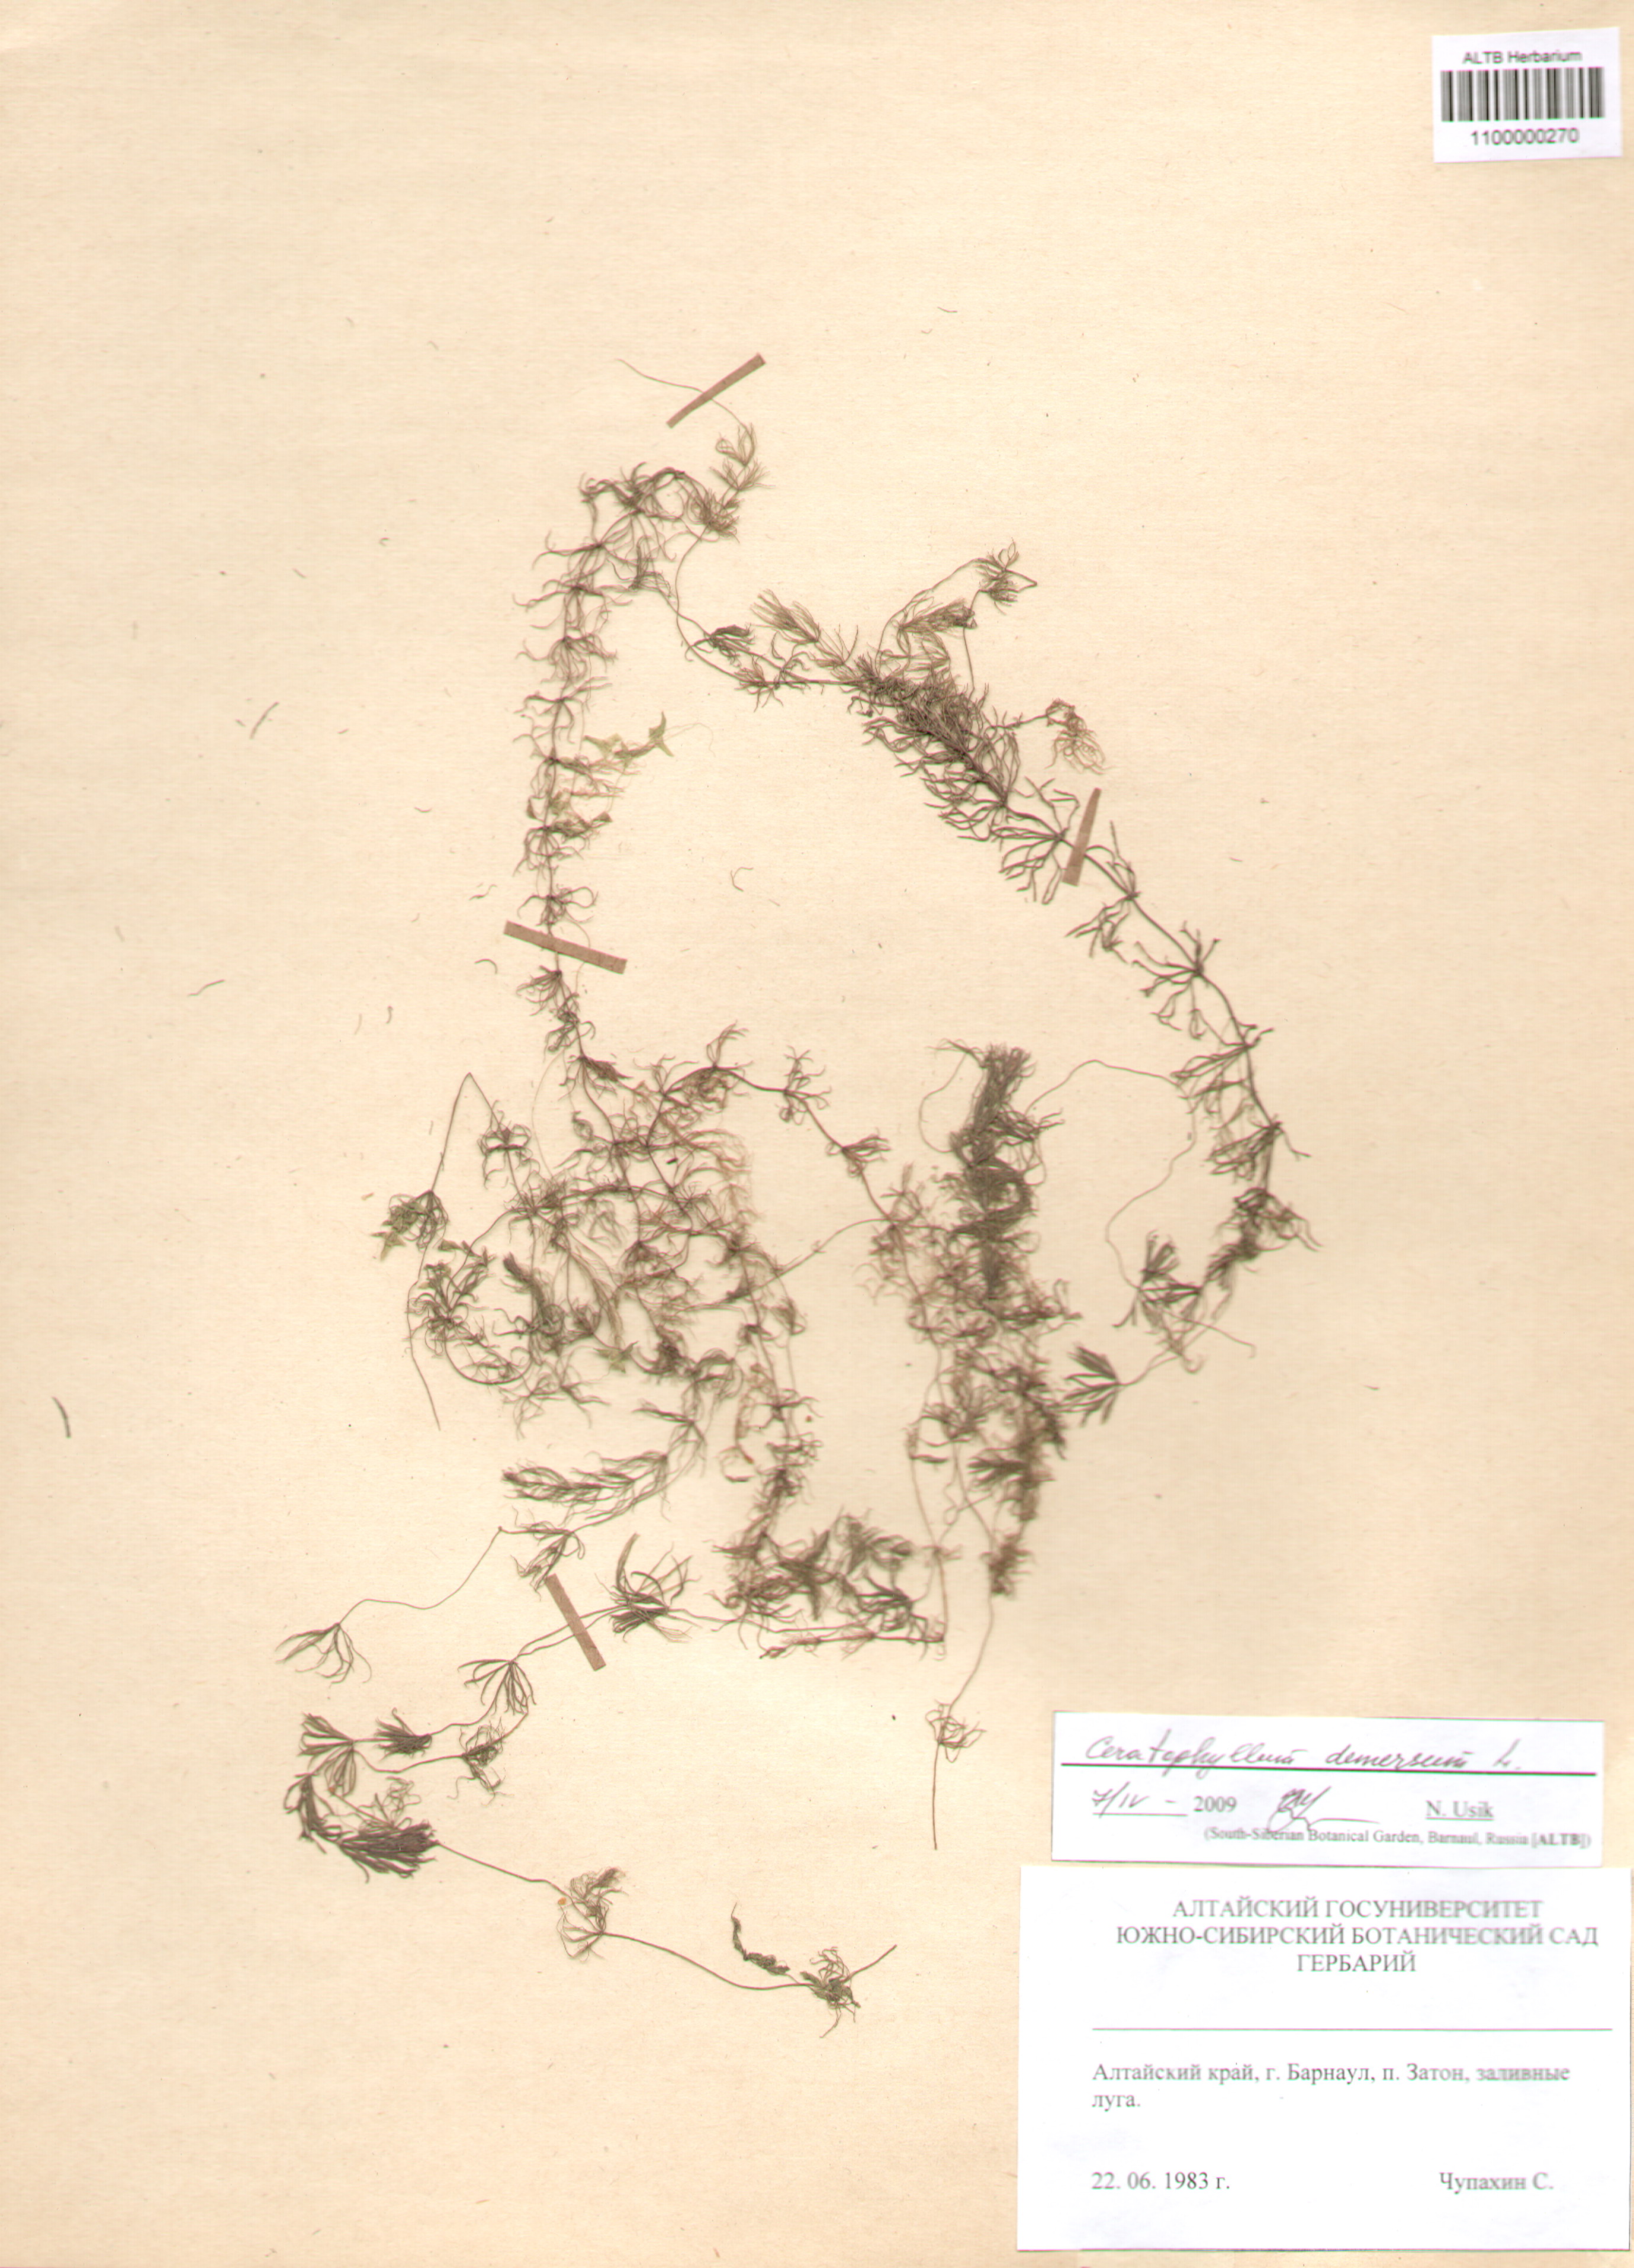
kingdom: Plantae
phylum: Tracheophyta
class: Magnoliopsida
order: Ceratophyllales
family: Ceratophyllaceae
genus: Ceratophyllum
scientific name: Ceratophyllum demersum
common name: Rigid hornwort
